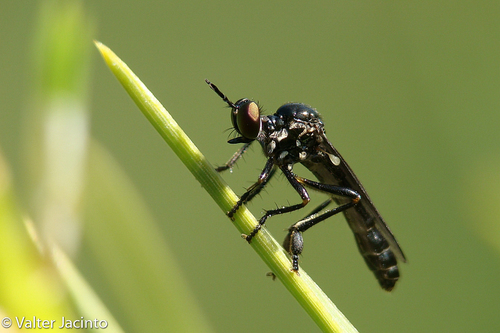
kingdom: Animalia
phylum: Arthropoda
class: Insecta
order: Diptera
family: Asilidae
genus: Dioctria
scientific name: Dioctria
